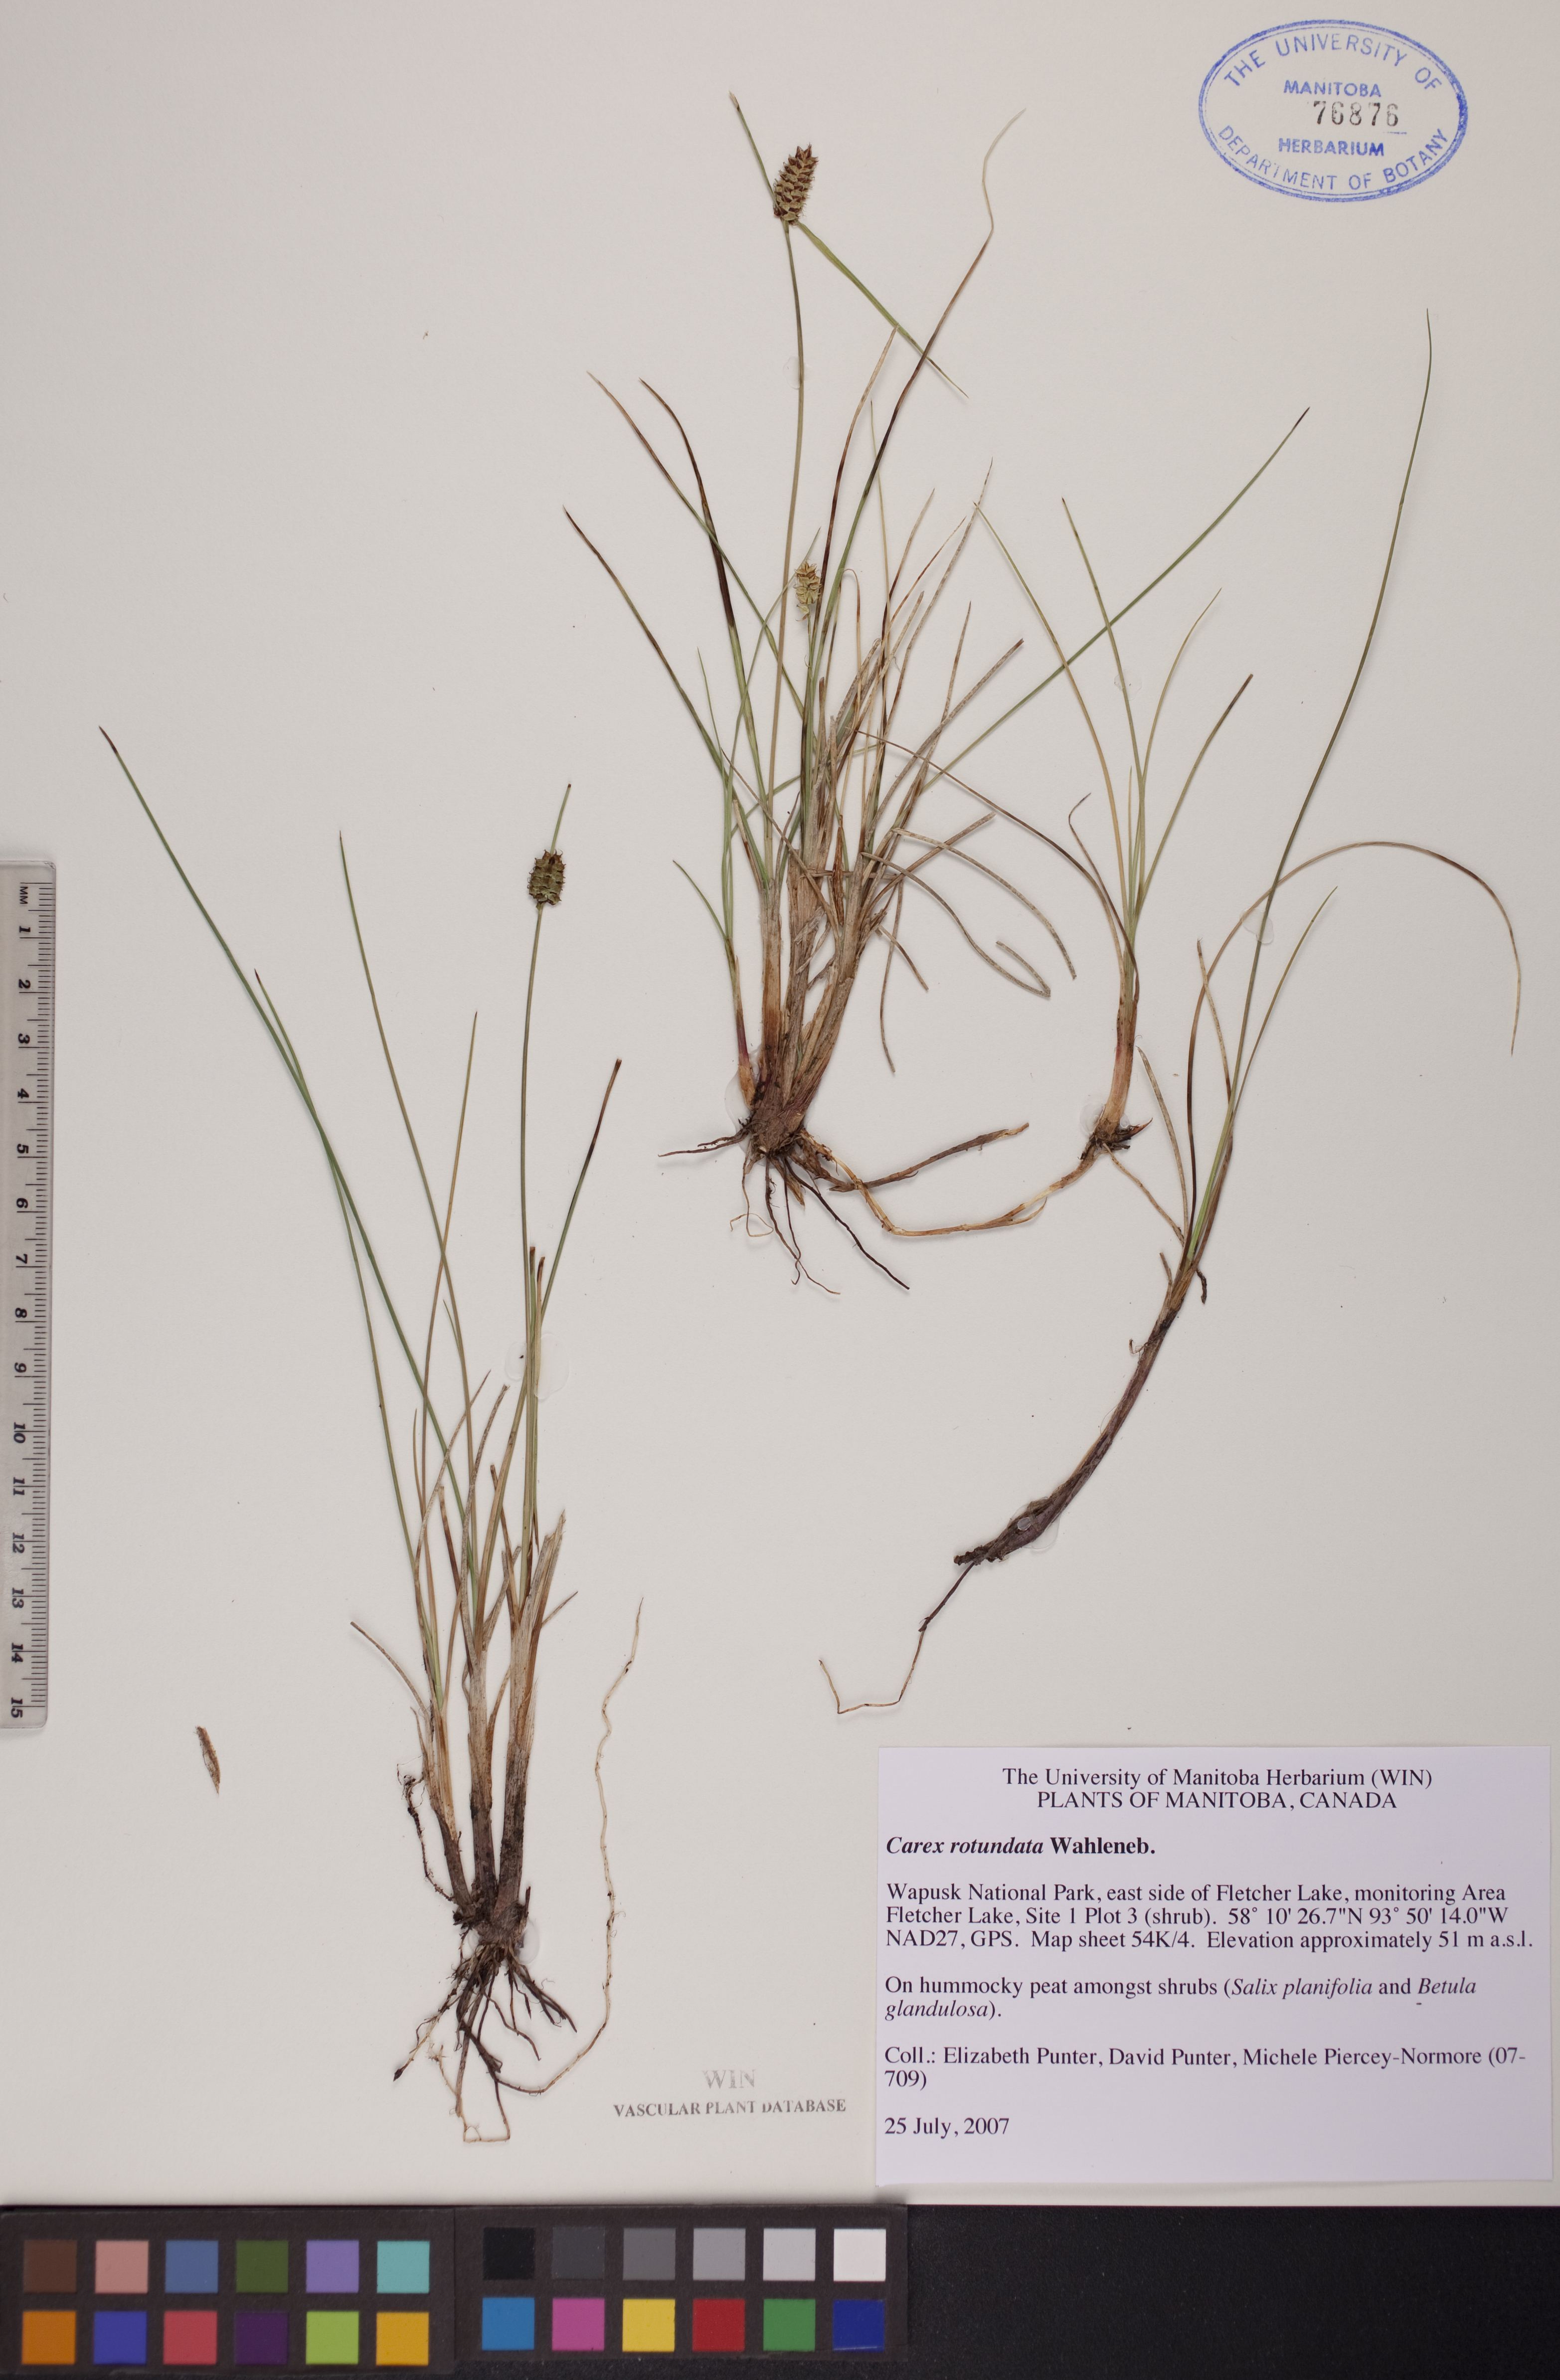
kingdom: Plantae
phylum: Tracheophyta
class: Liliopsida
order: Poales
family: Cyperaceae
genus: Carex
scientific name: Carex rotundata
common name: Round-fruited sedge
